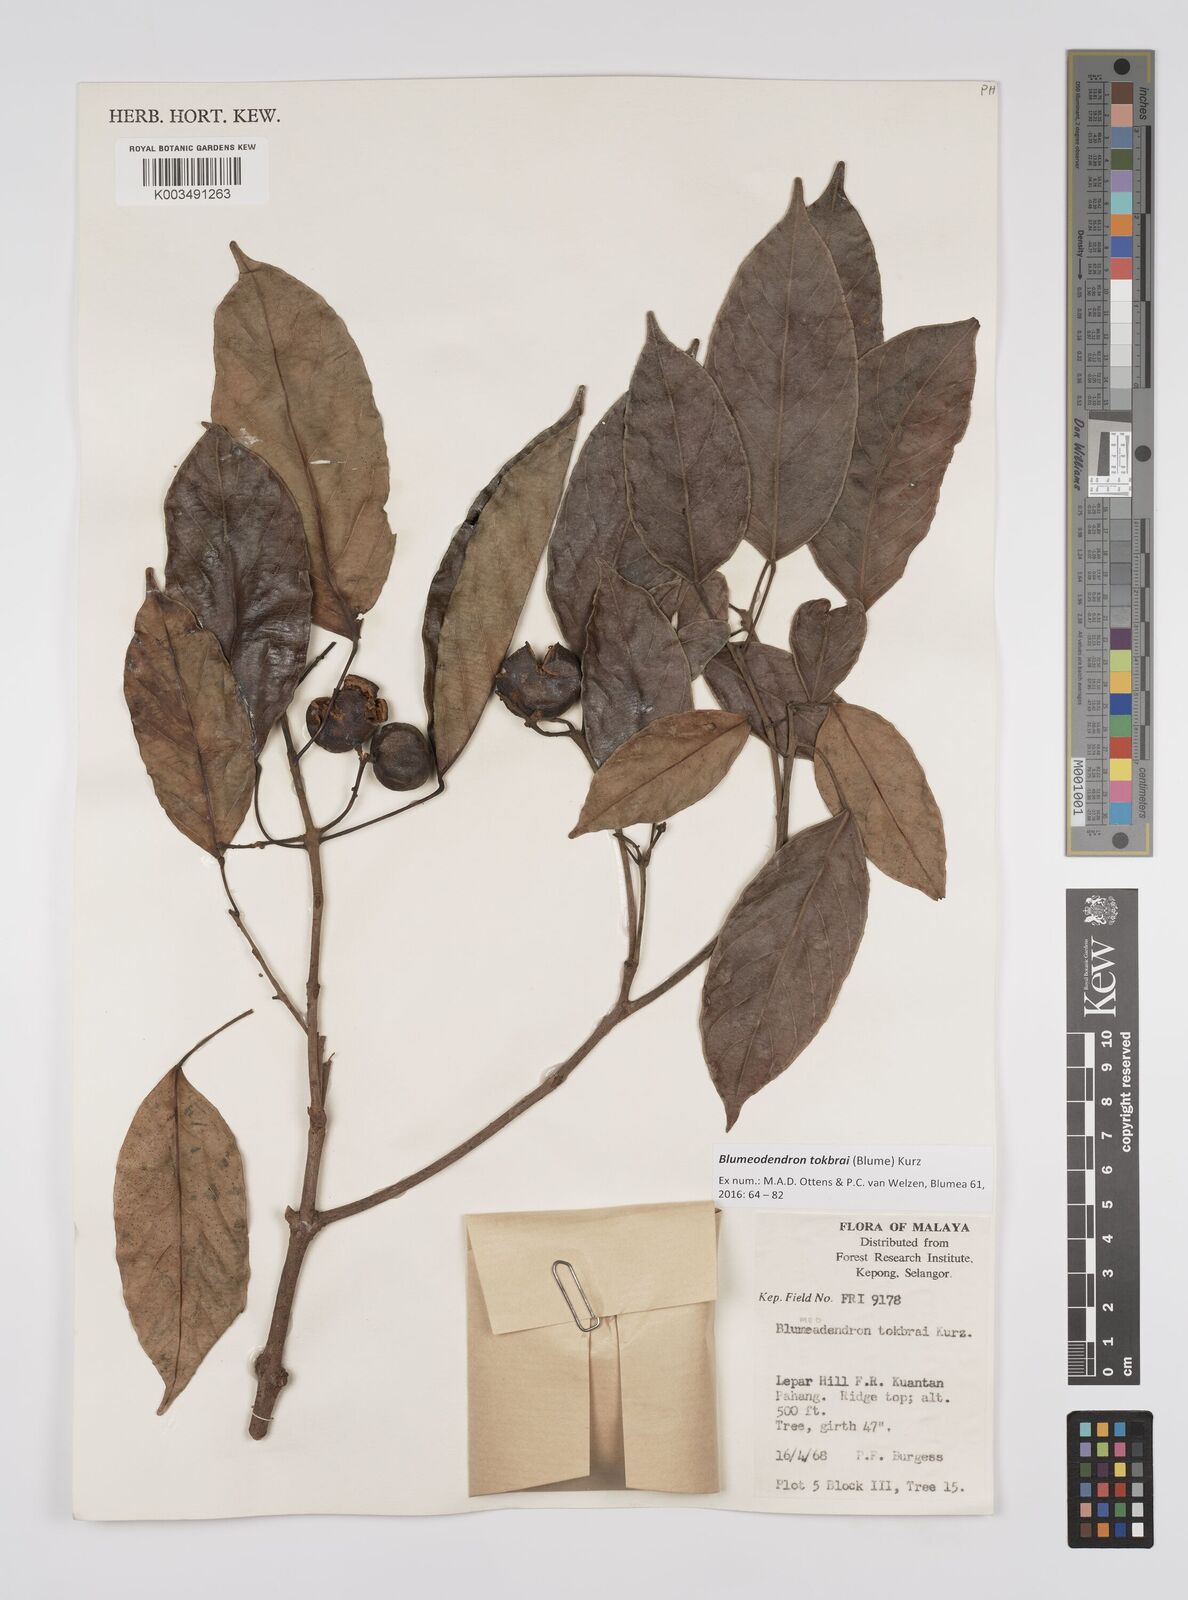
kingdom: Plantae
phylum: Tracheophyta
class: Magnoliopsida
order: Malpighiales
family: Euphorbiaceae
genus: Blumeodendron
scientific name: Blumeodendron tokbrai
